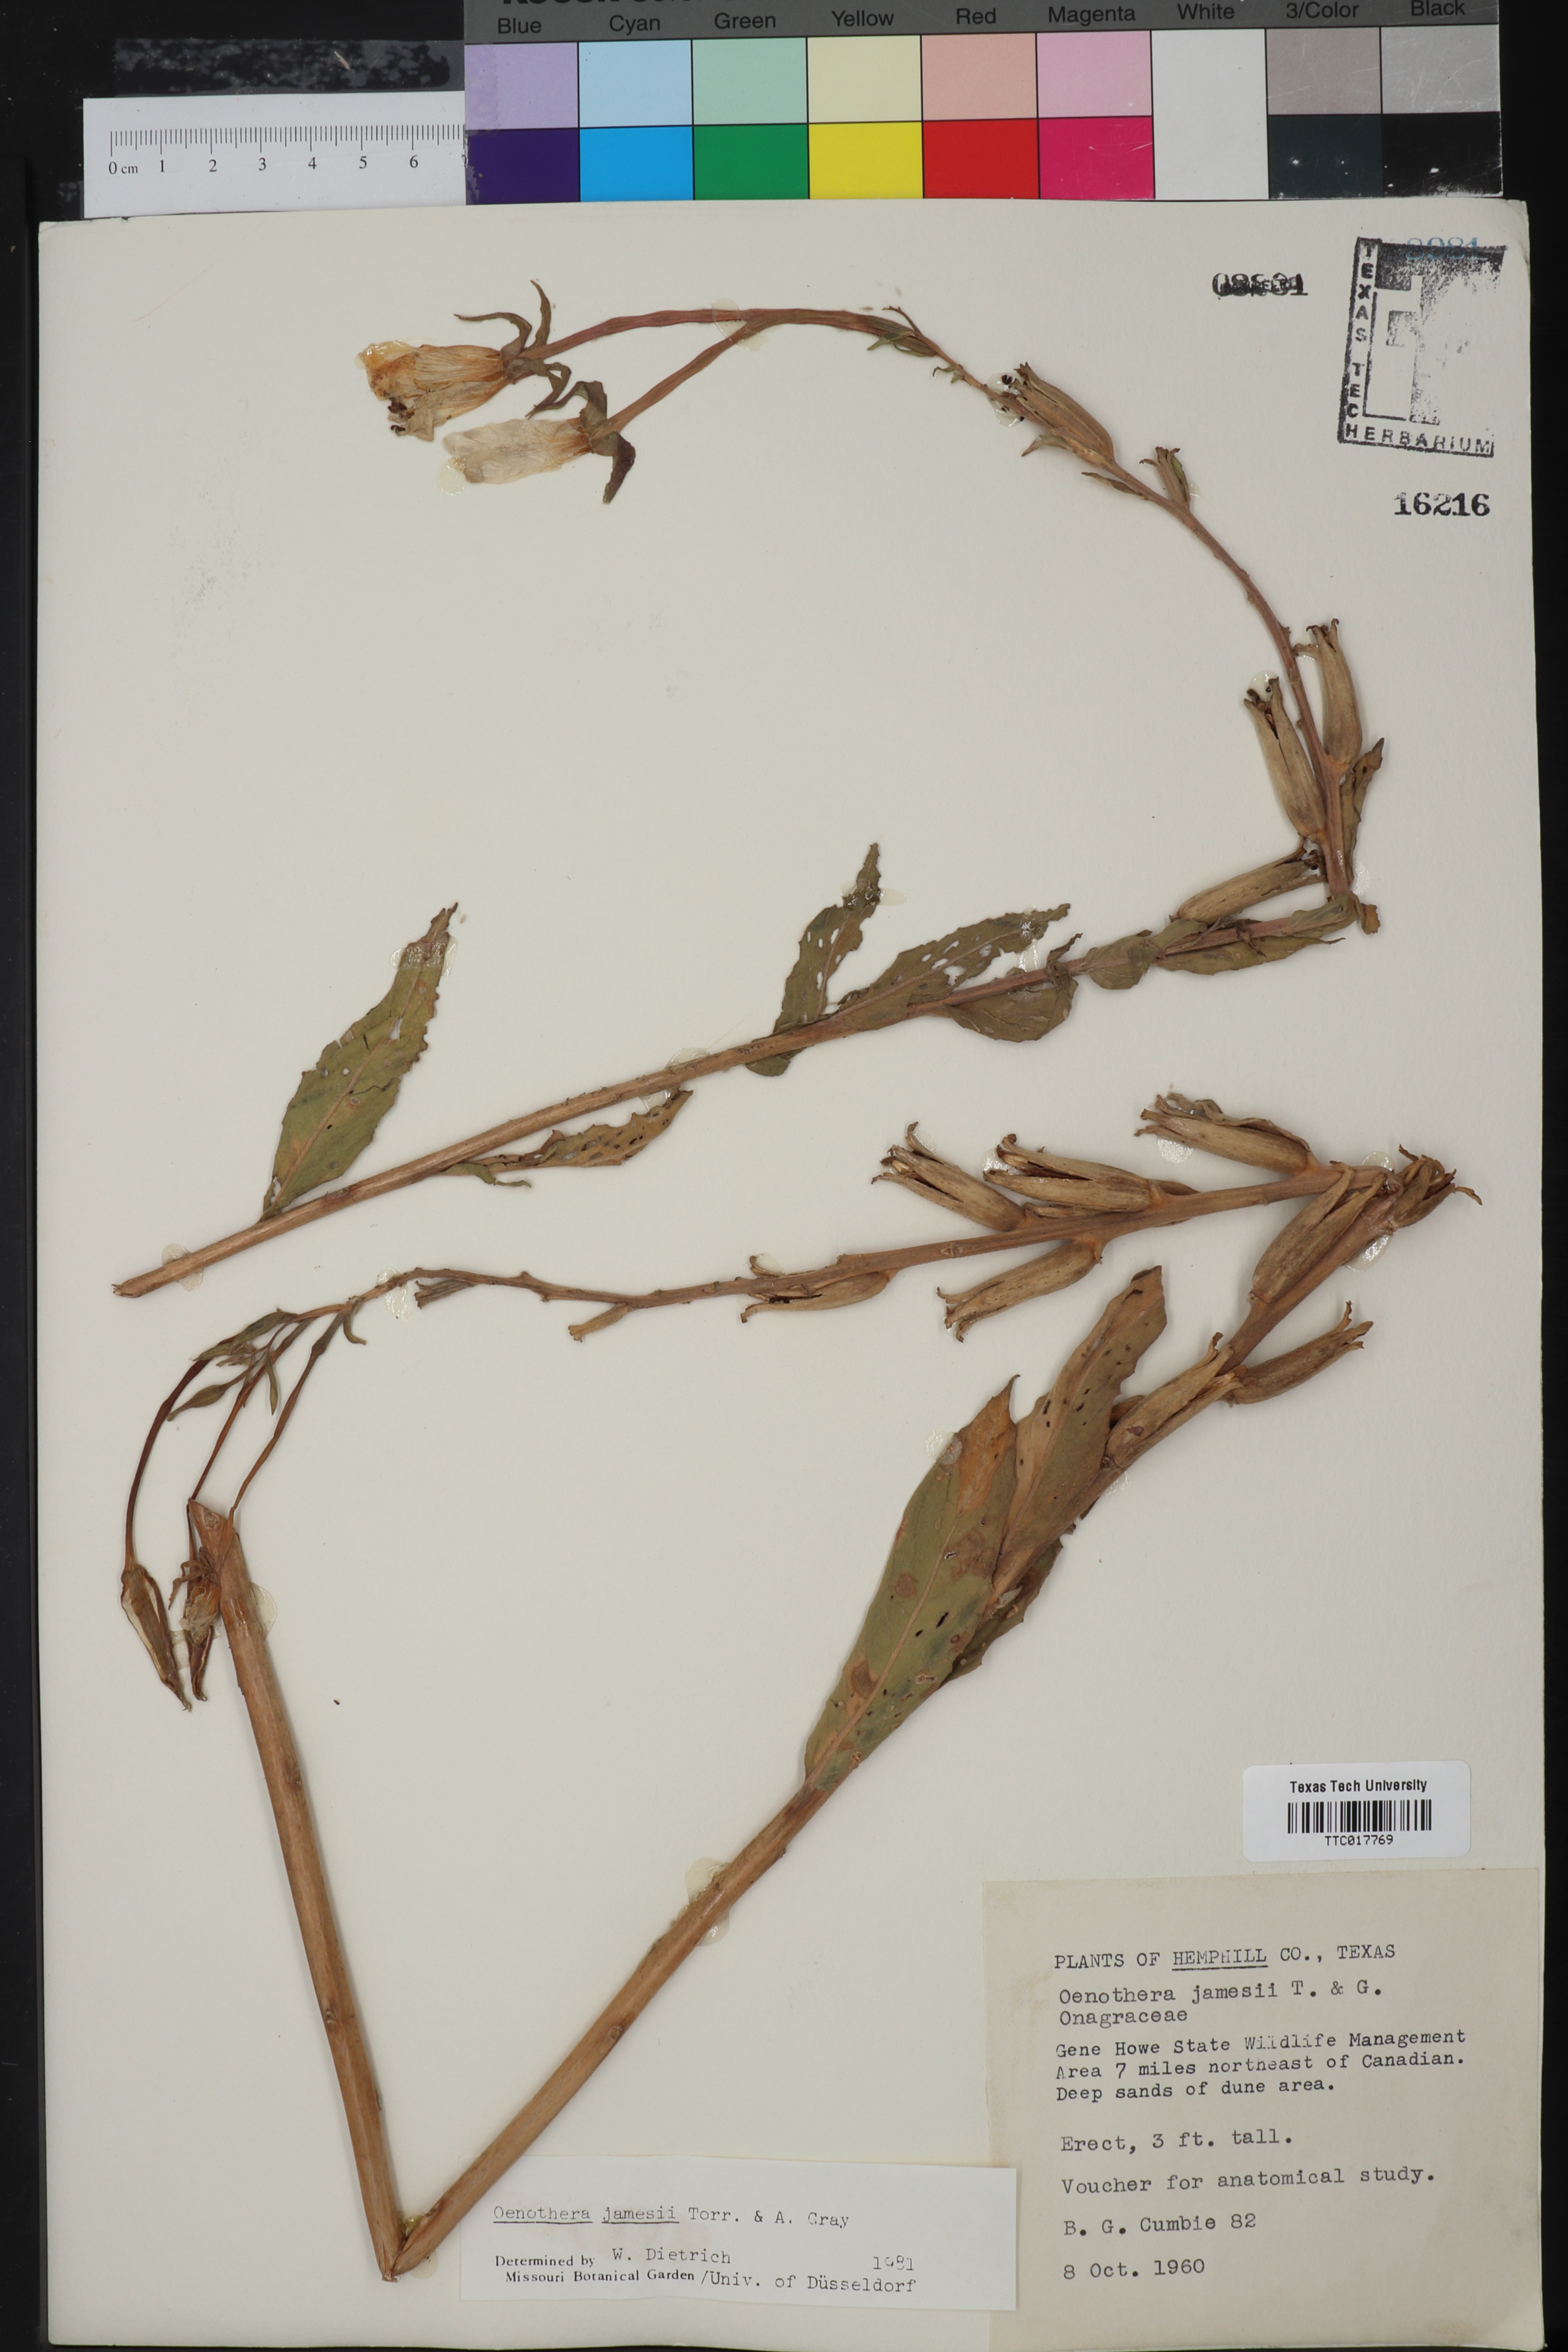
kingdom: Plantae
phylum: Tracheophyta
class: Magnoliopsida
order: Myrtales
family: Onagraceae
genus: Oenothera
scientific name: Oenothera jamesii
